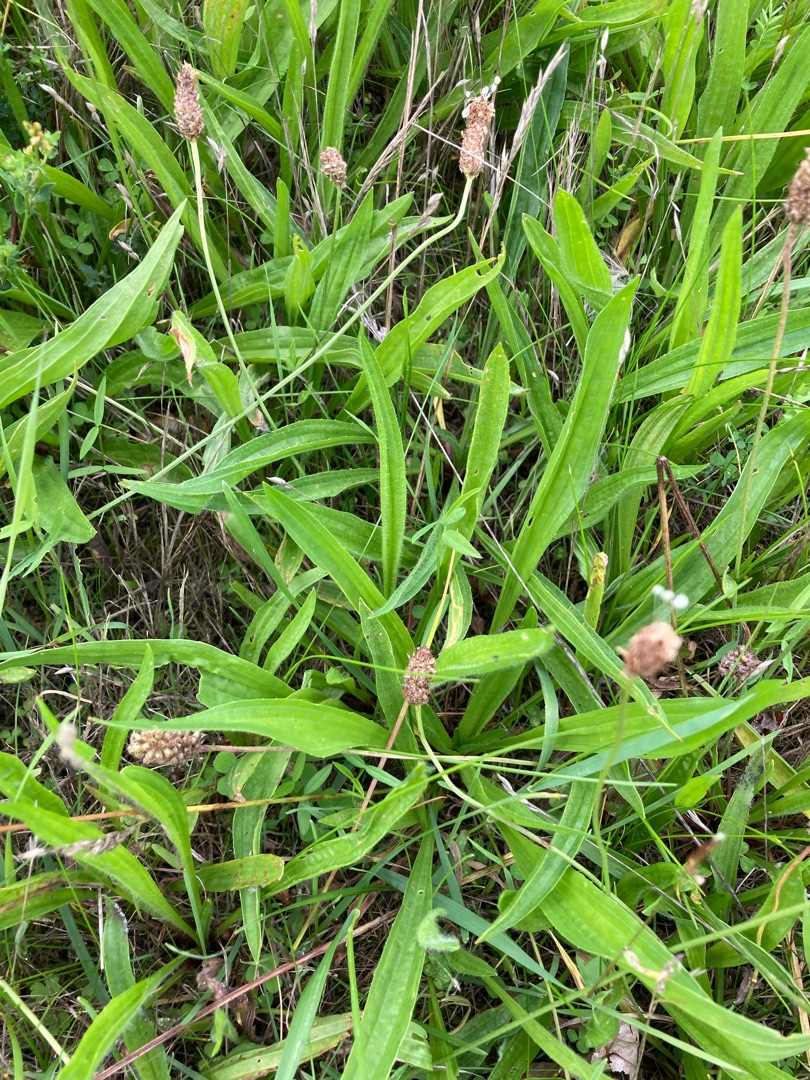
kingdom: Plantae
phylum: Tracheophyta
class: Magnoliopsida
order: Lamiales
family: Plantaginaceae
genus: Plantago
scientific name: Plantago lanceolata
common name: Lancet-vejbred
